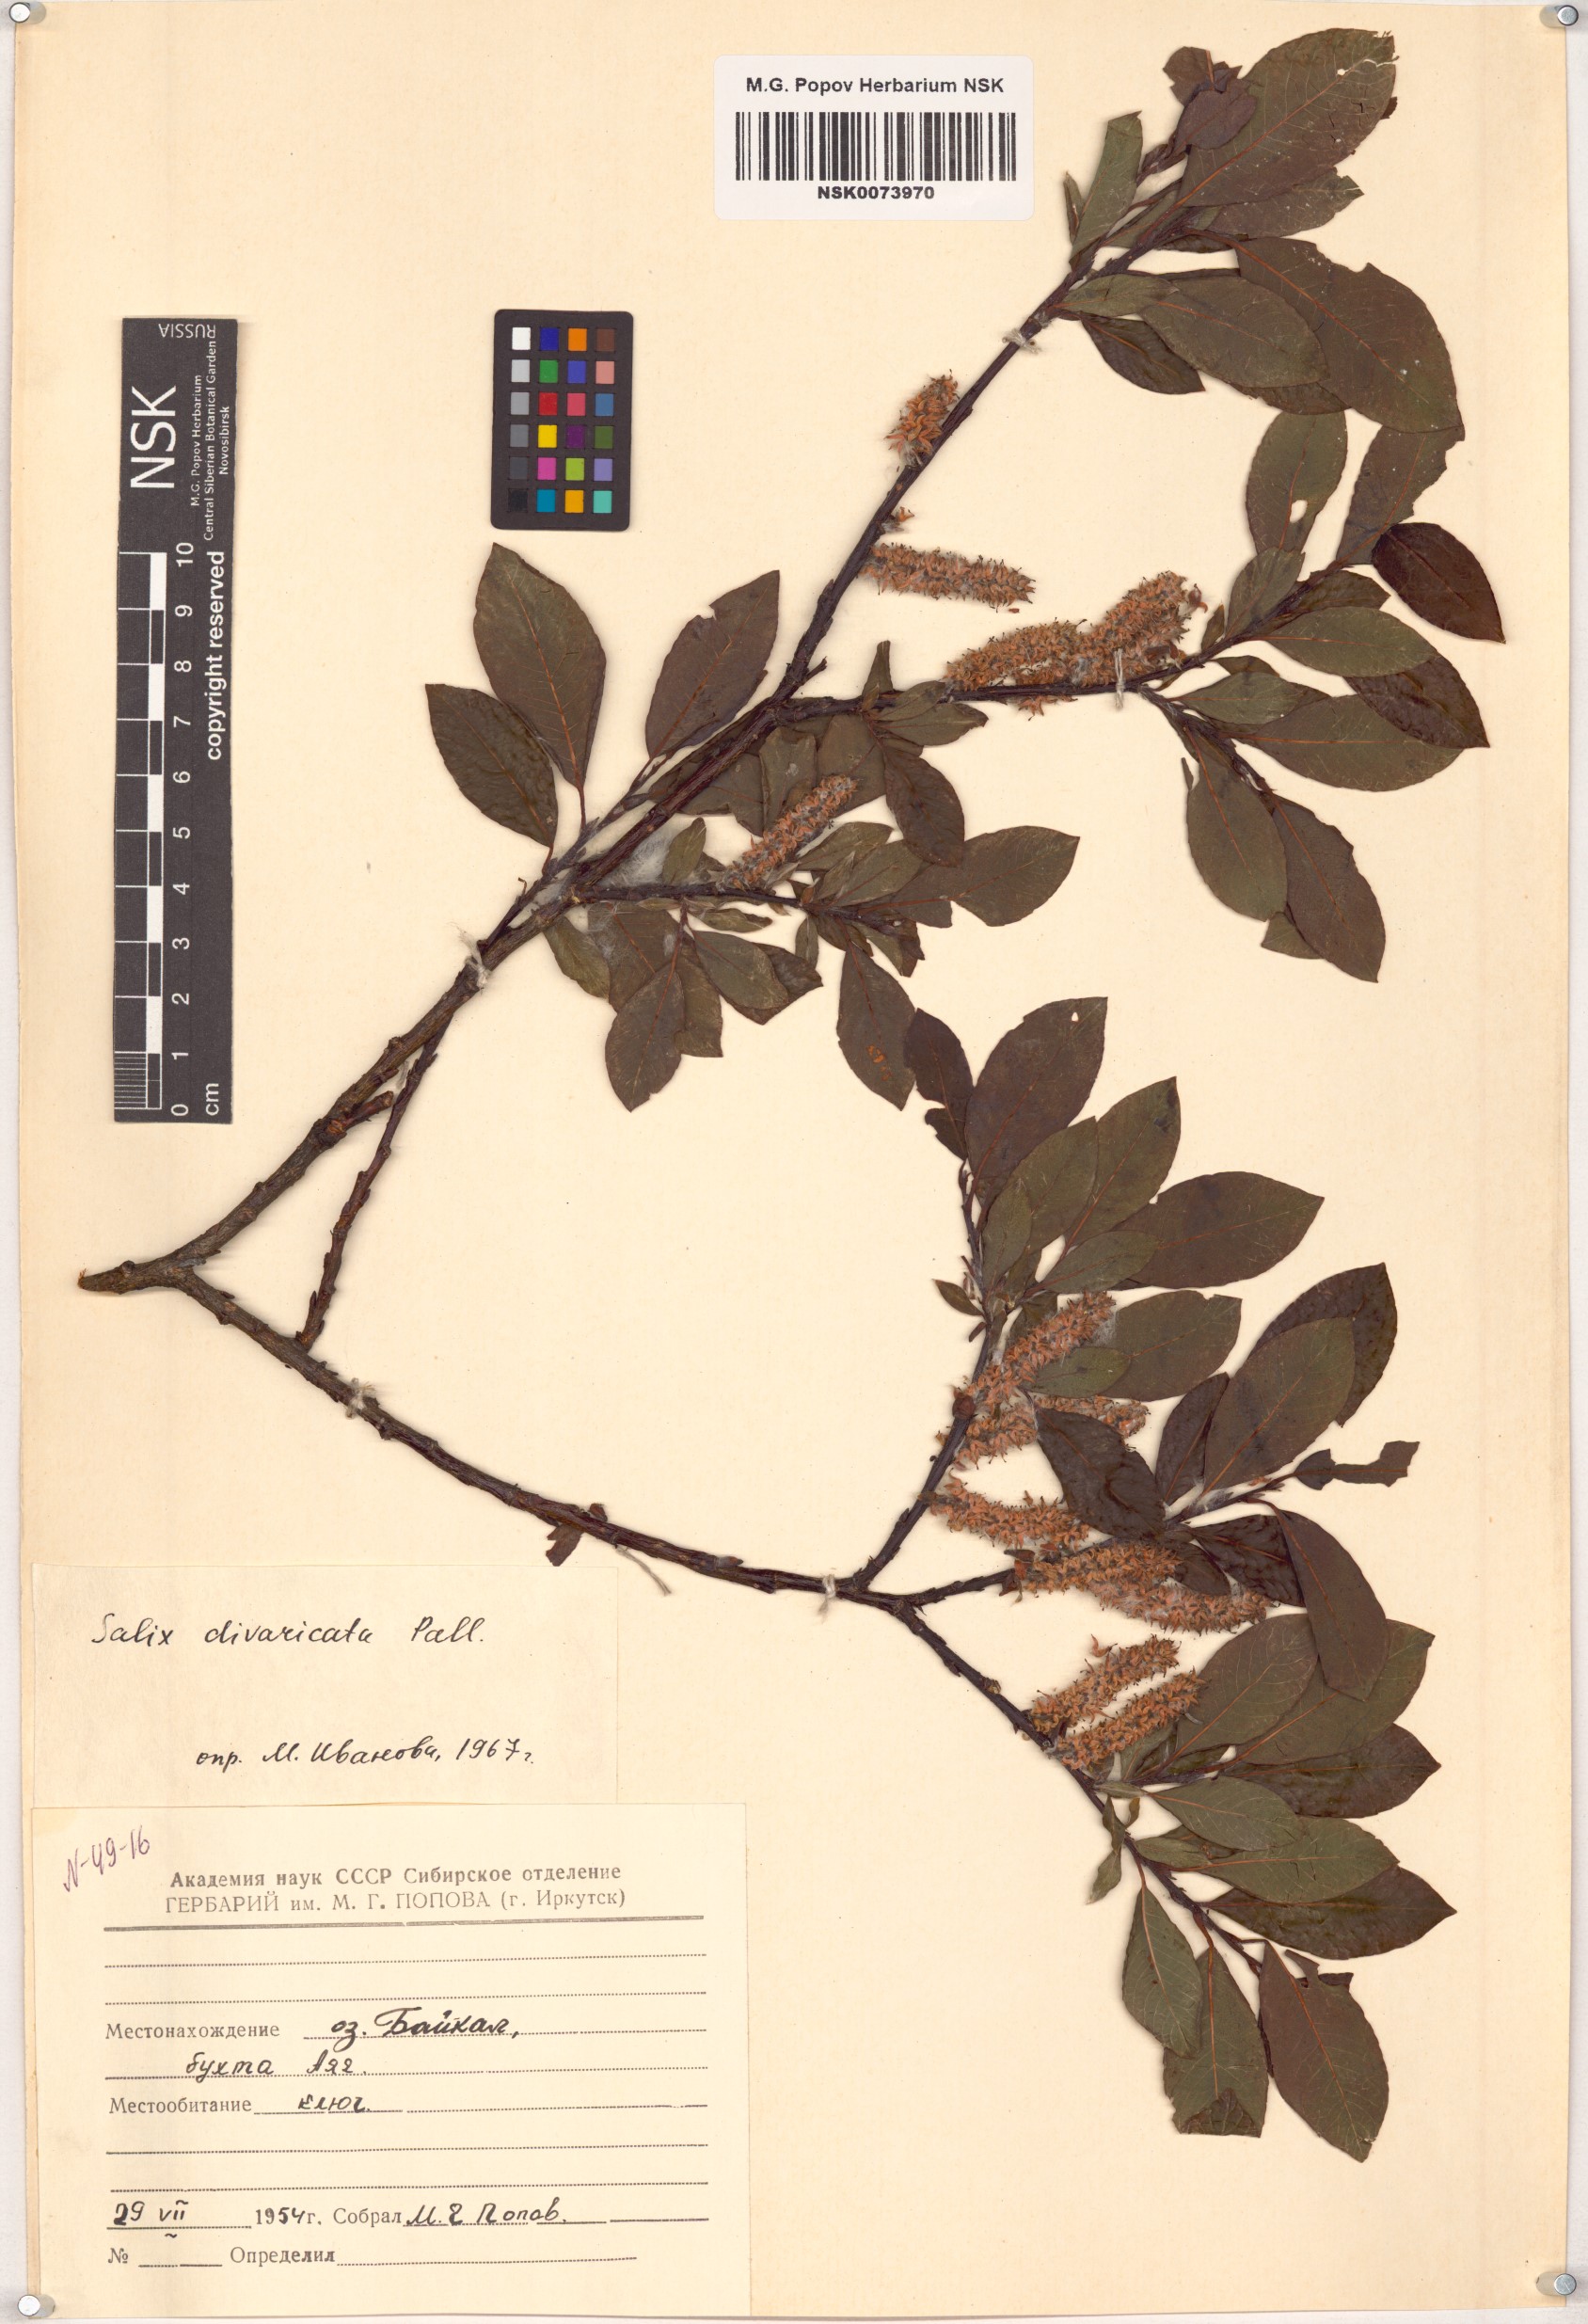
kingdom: Plantae
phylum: Tracheophyta
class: Magnoliopsida
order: Malpighiales
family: Salicaceae
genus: Salix
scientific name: Salix divaricata
